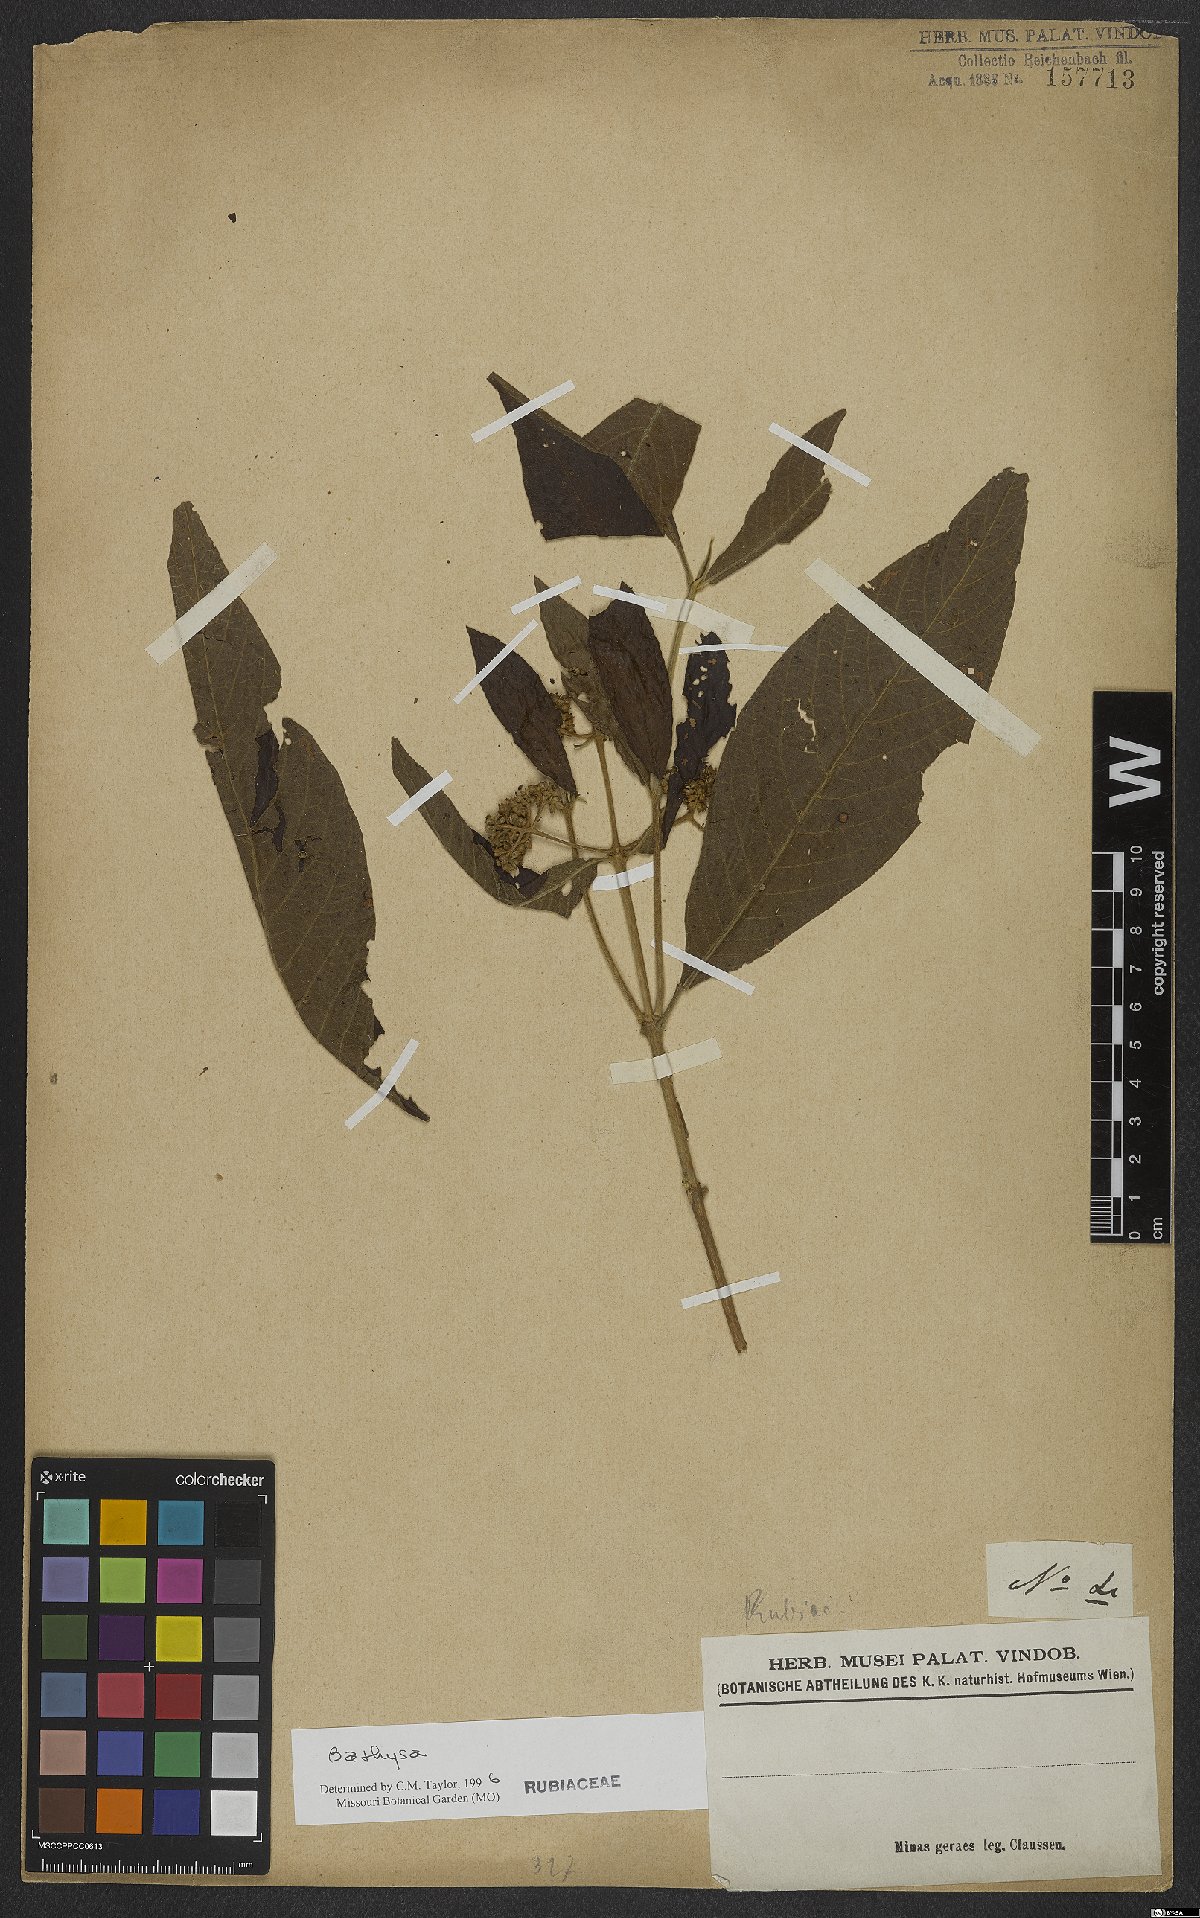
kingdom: Plantae
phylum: Tracheophyta
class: Magnoliopsida
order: Gentianales
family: Rubiaceae
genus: Bathysa
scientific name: Bathysa
